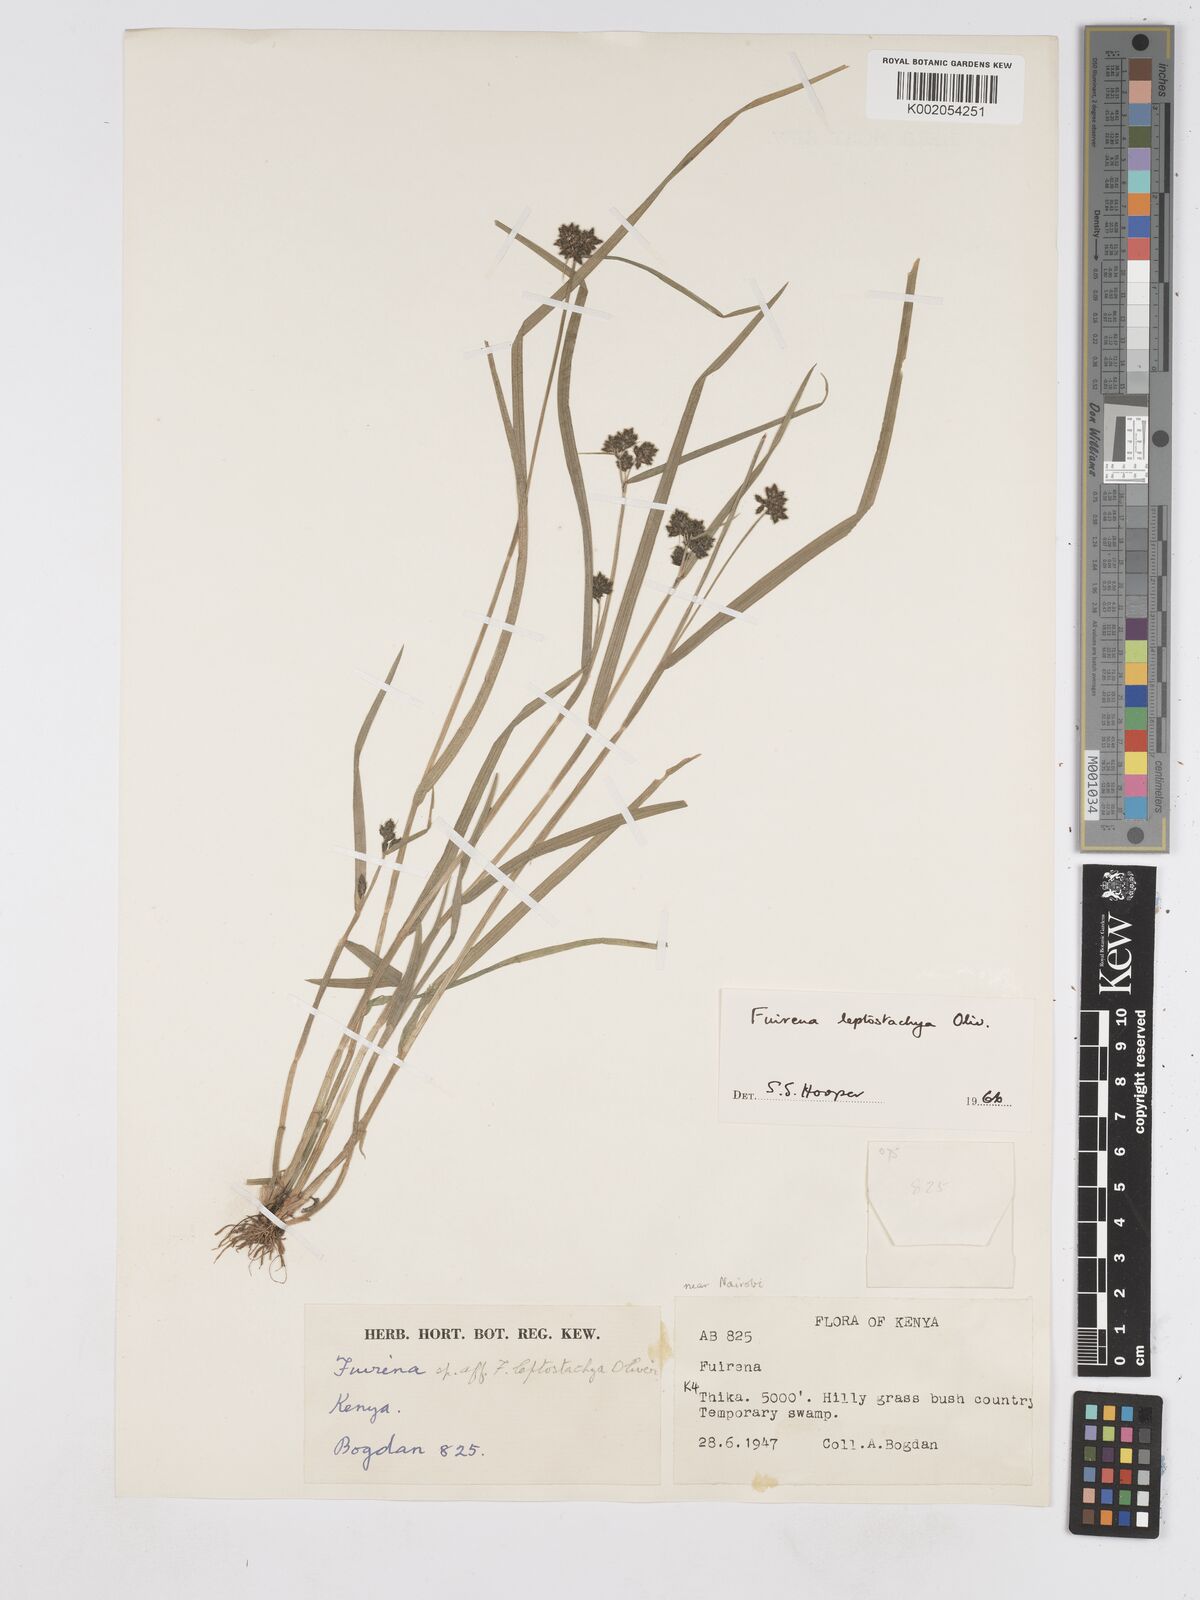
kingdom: Plantae
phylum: Tracheophyta
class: Liliopsida
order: Poales
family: Cyperaceae
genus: Fuirena
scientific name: Fuirena leptostachya
